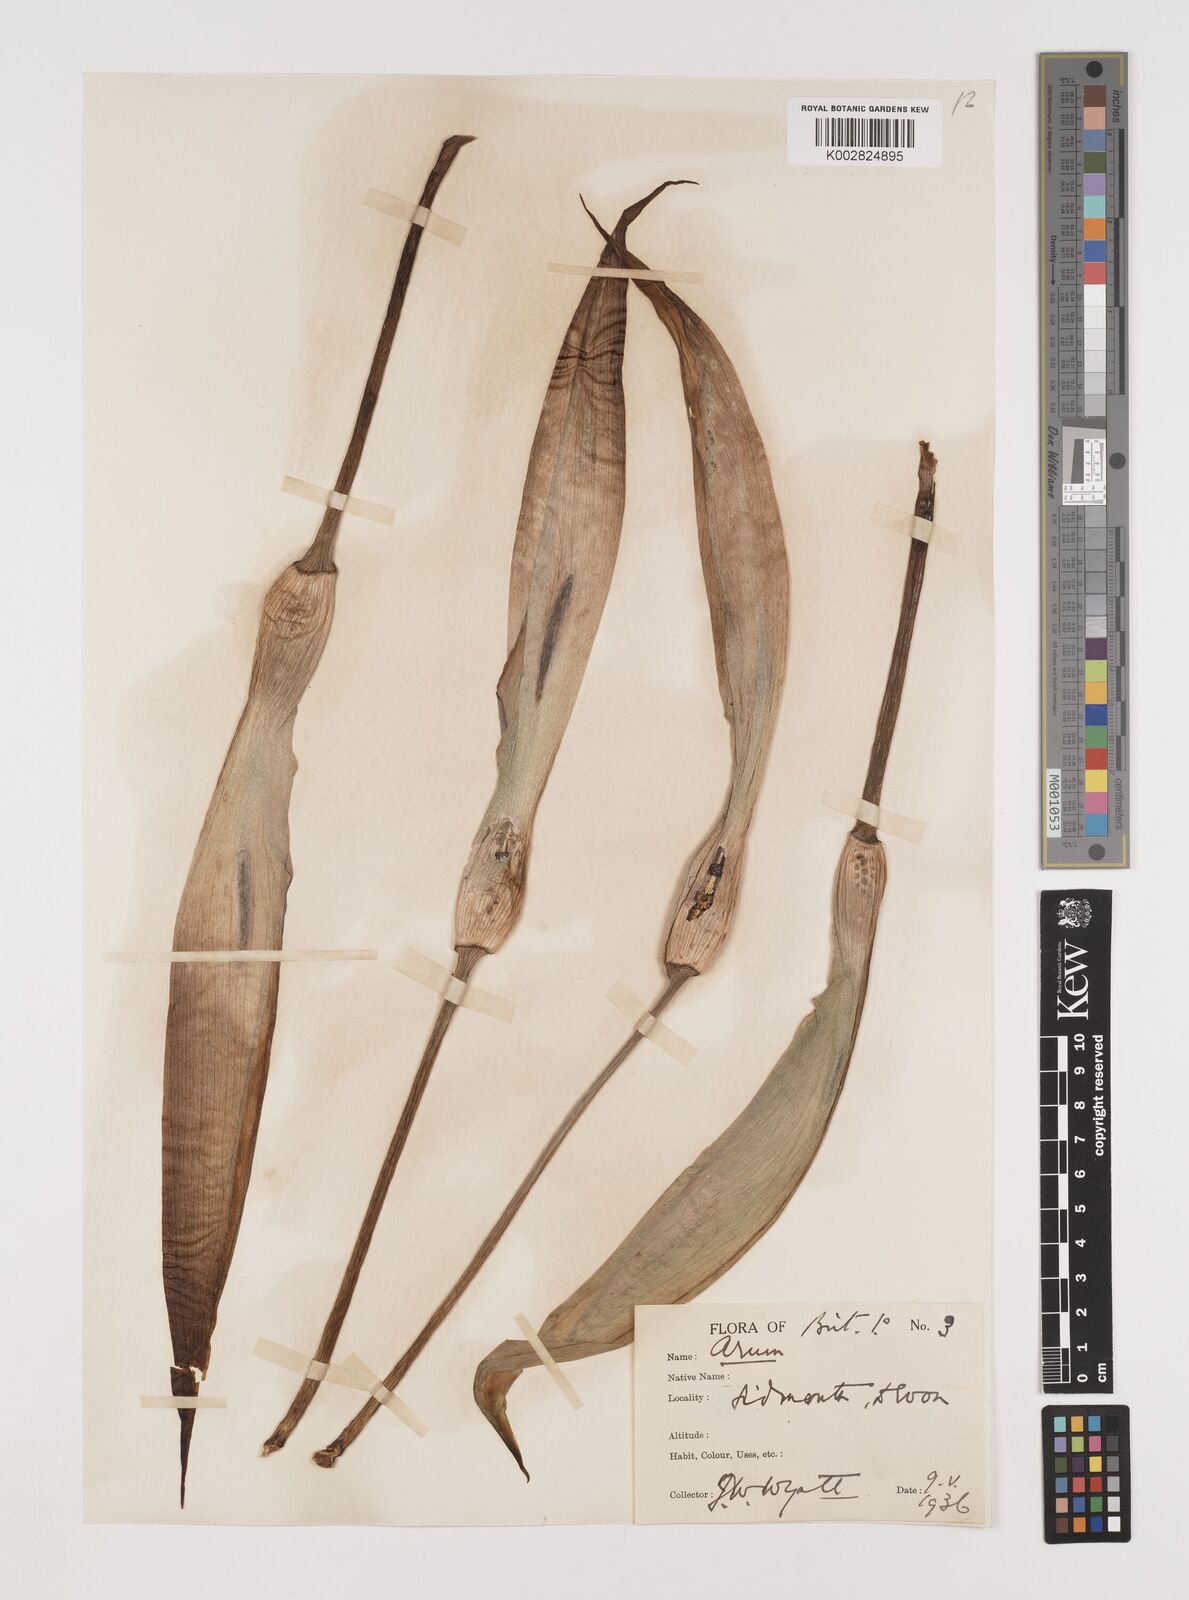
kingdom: Plantae
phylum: Tracheophyta
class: Liliopsida
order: Alismatales
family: Araceae
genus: Arum
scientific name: Arum italicum
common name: Italian lords-and-ladies
